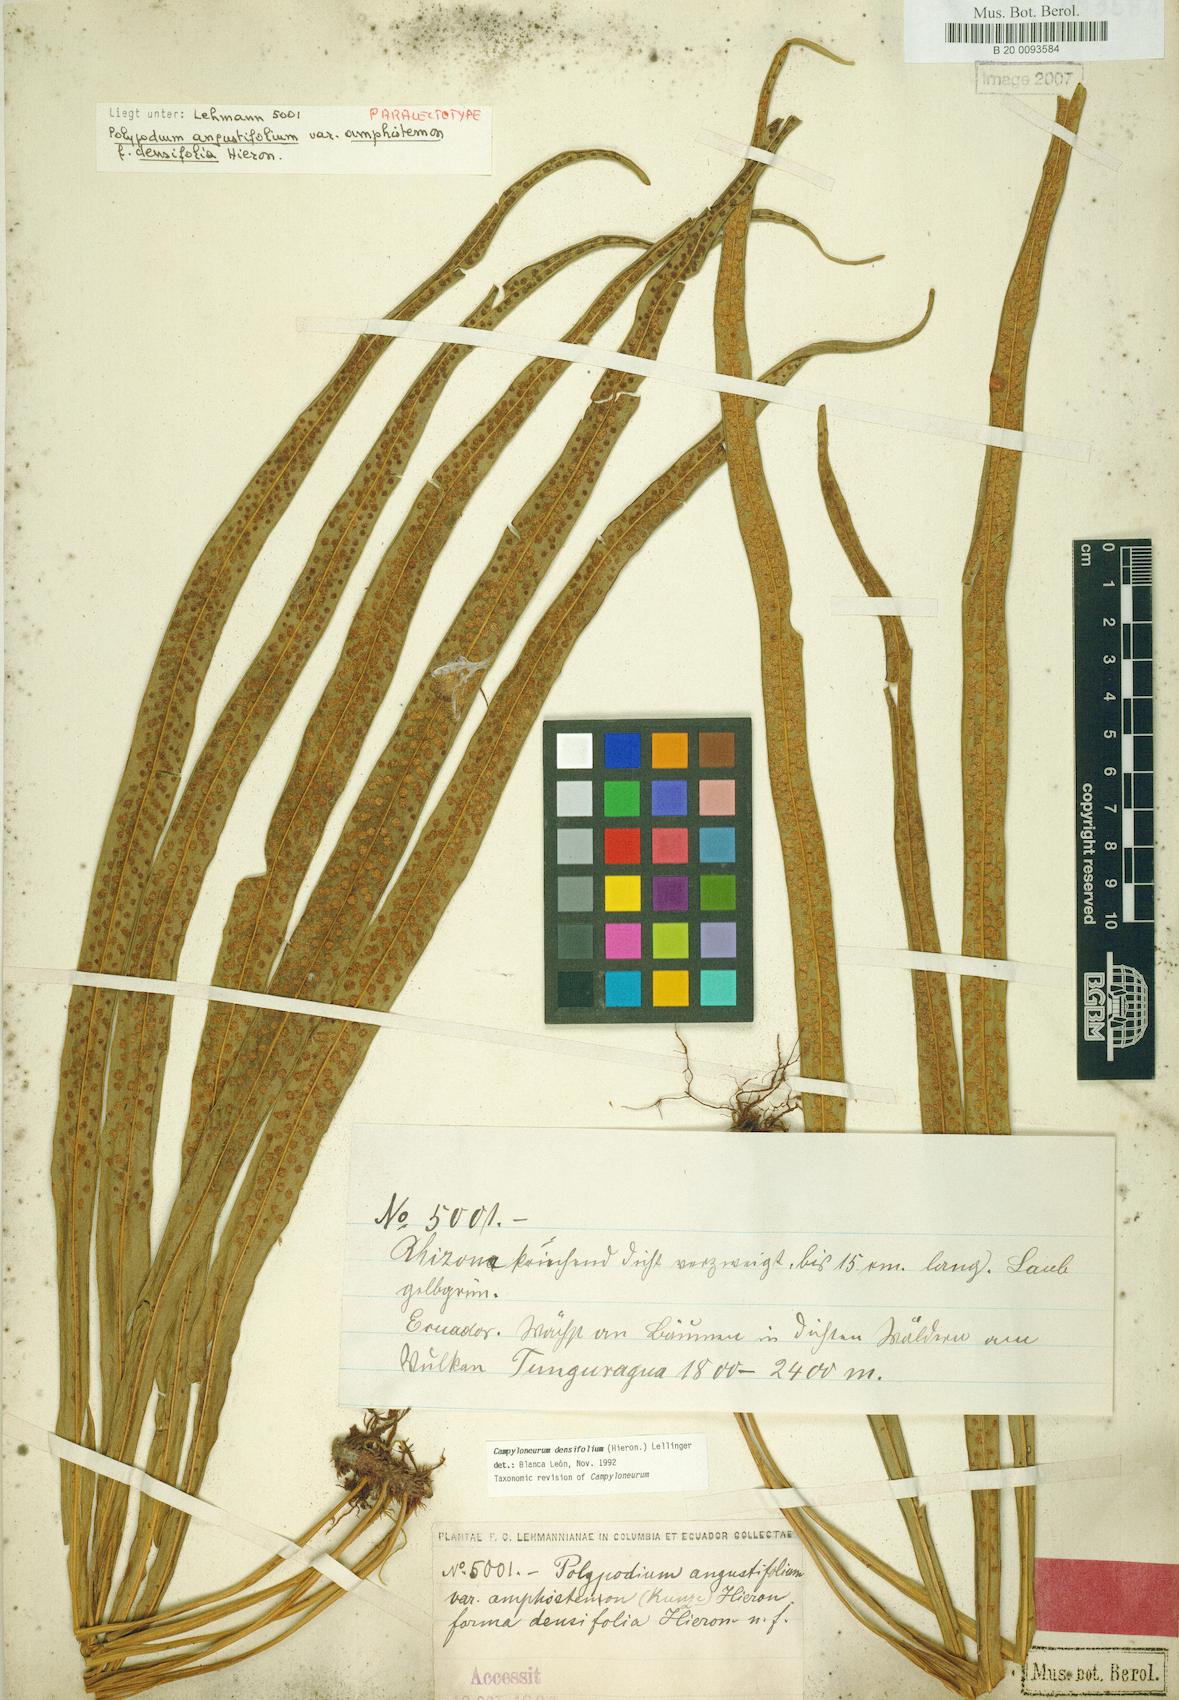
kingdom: Plantae
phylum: Tracheophyta
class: Polypodiopsida
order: Polypodiales
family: Polypodiaceae
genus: Campyloneurum
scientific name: Campyloneurum densifolium
